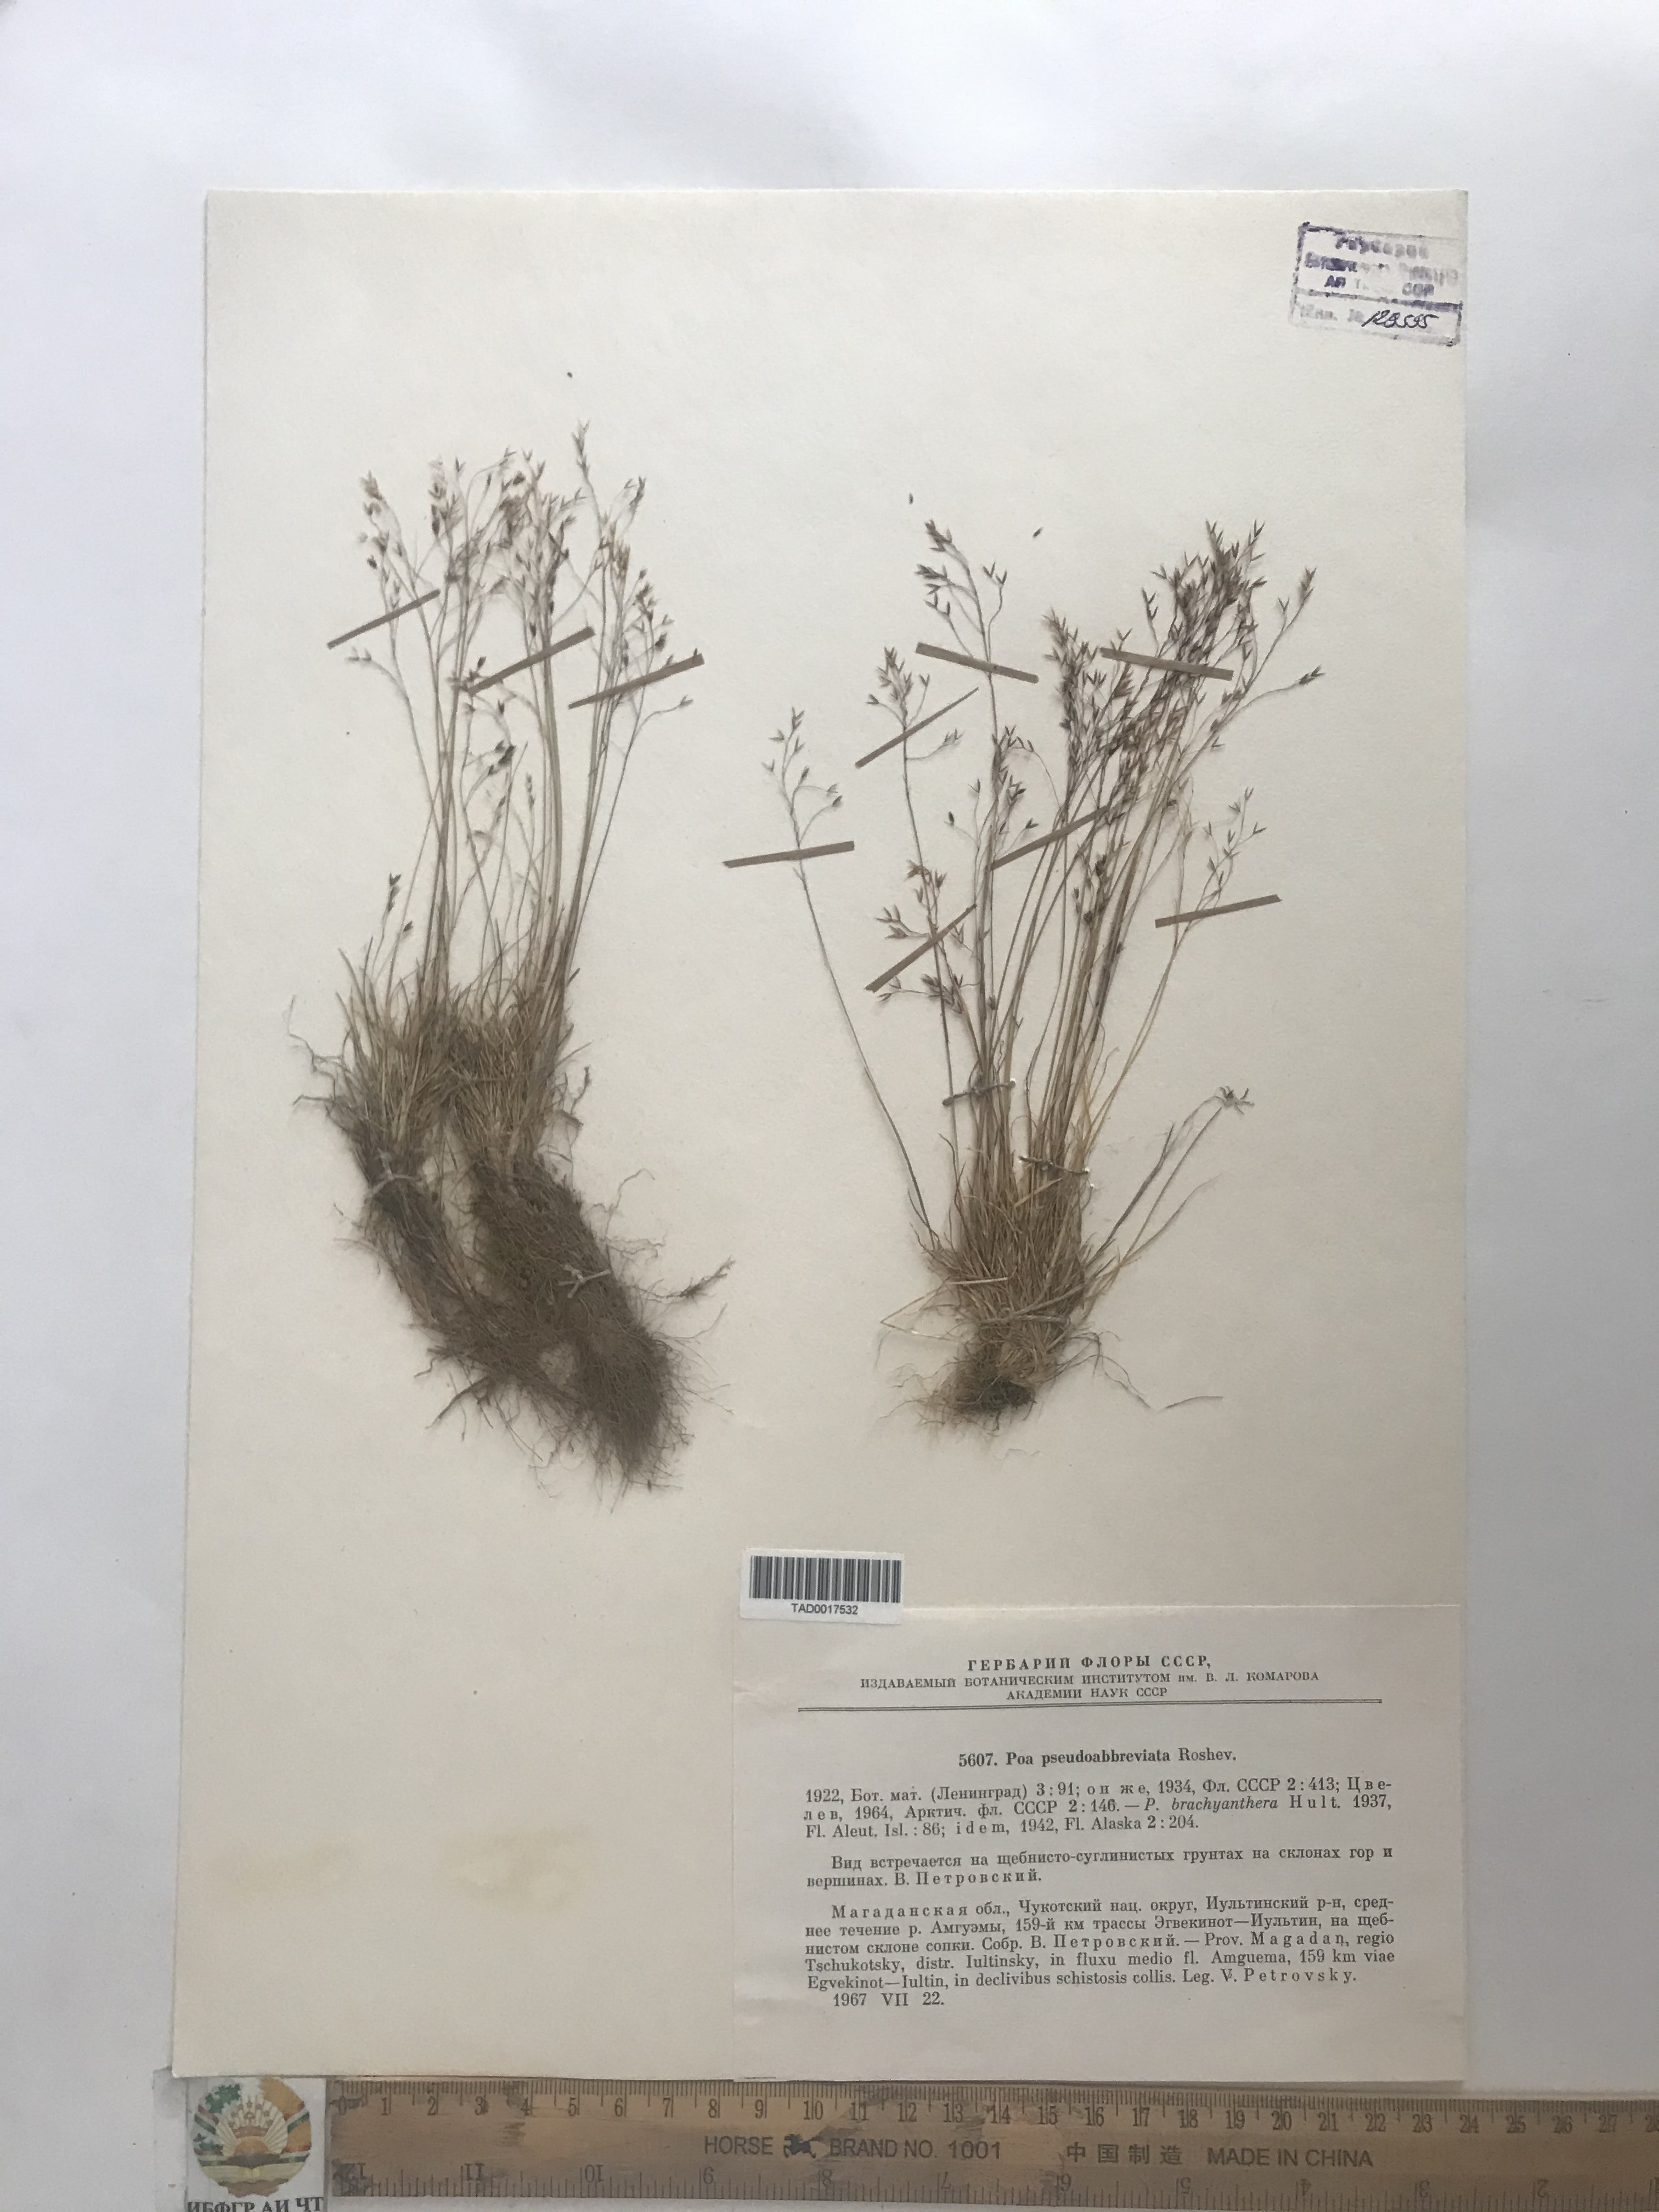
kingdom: Plantae
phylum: Tracheophyta
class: Liliopsida
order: Poales
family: Poaceae
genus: Poa
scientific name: Poa pseudoabbreviata
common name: Polar bluegrass
